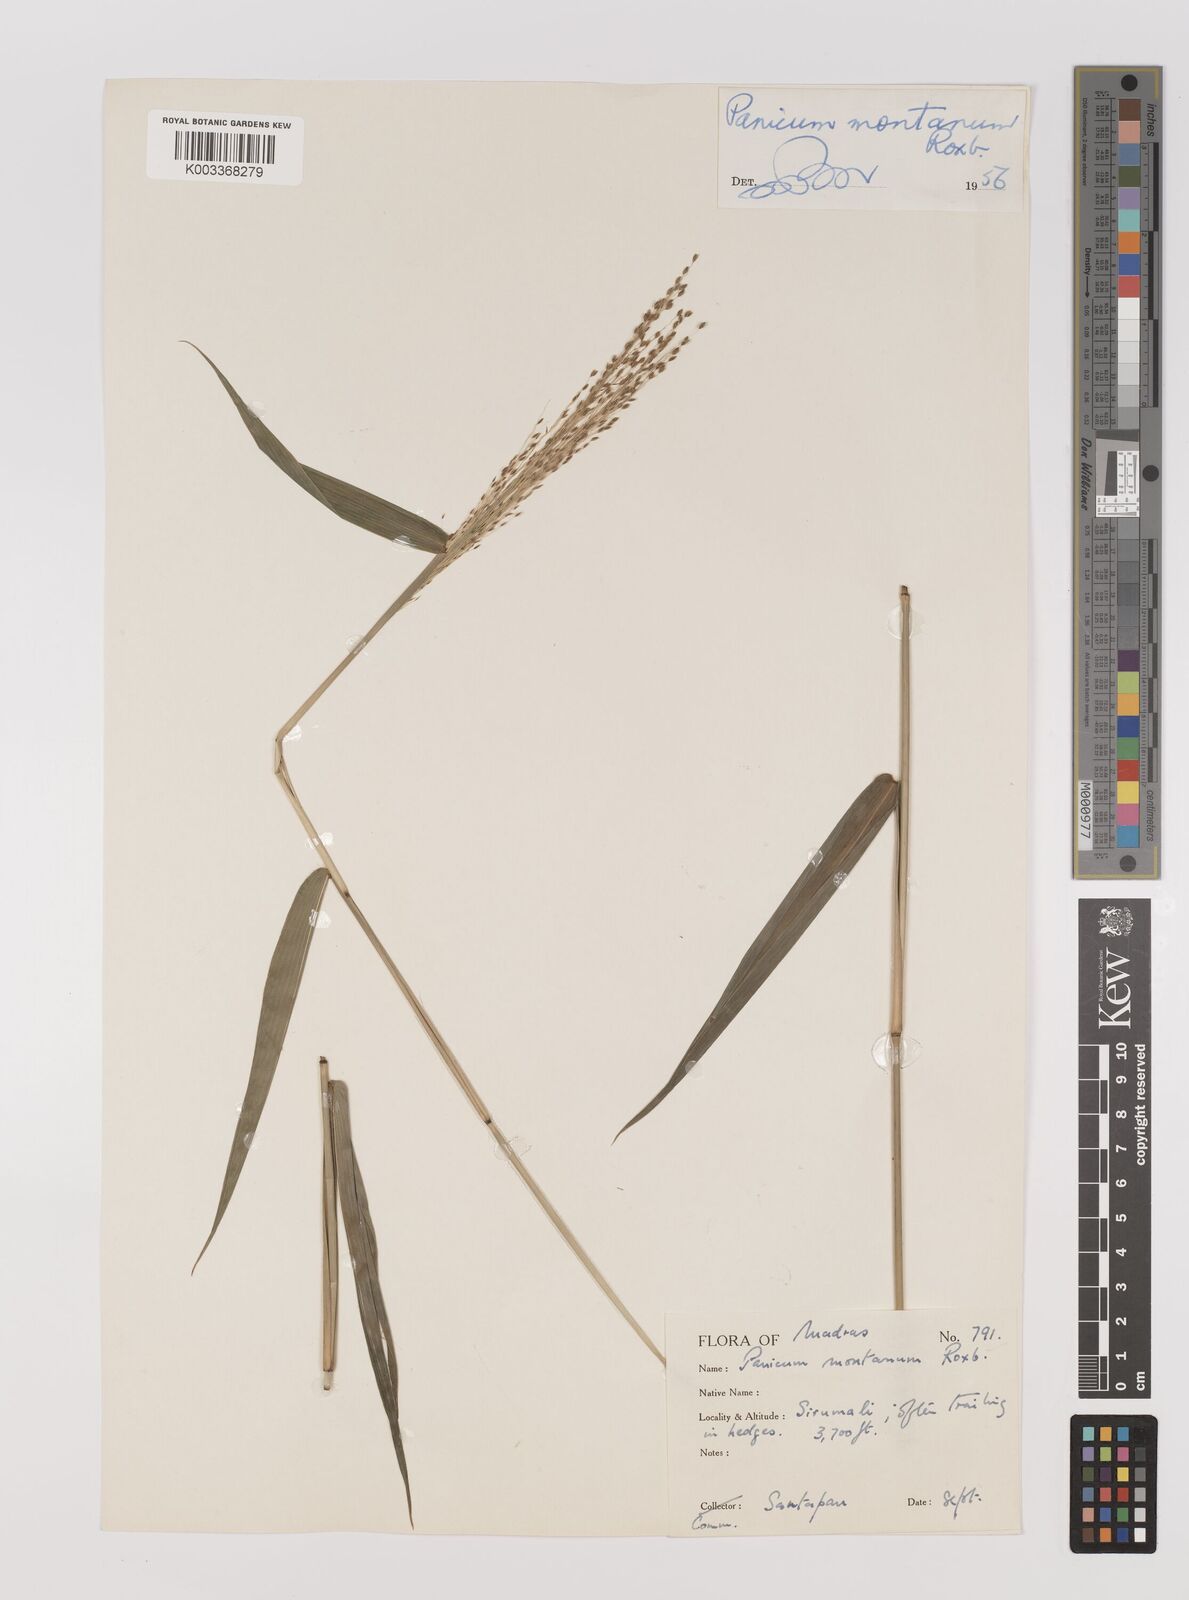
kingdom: Plantae
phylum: Tracheophyta
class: Liliopsida
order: Poales
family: Poaceae
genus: Panicum
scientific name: Panicum notatum
